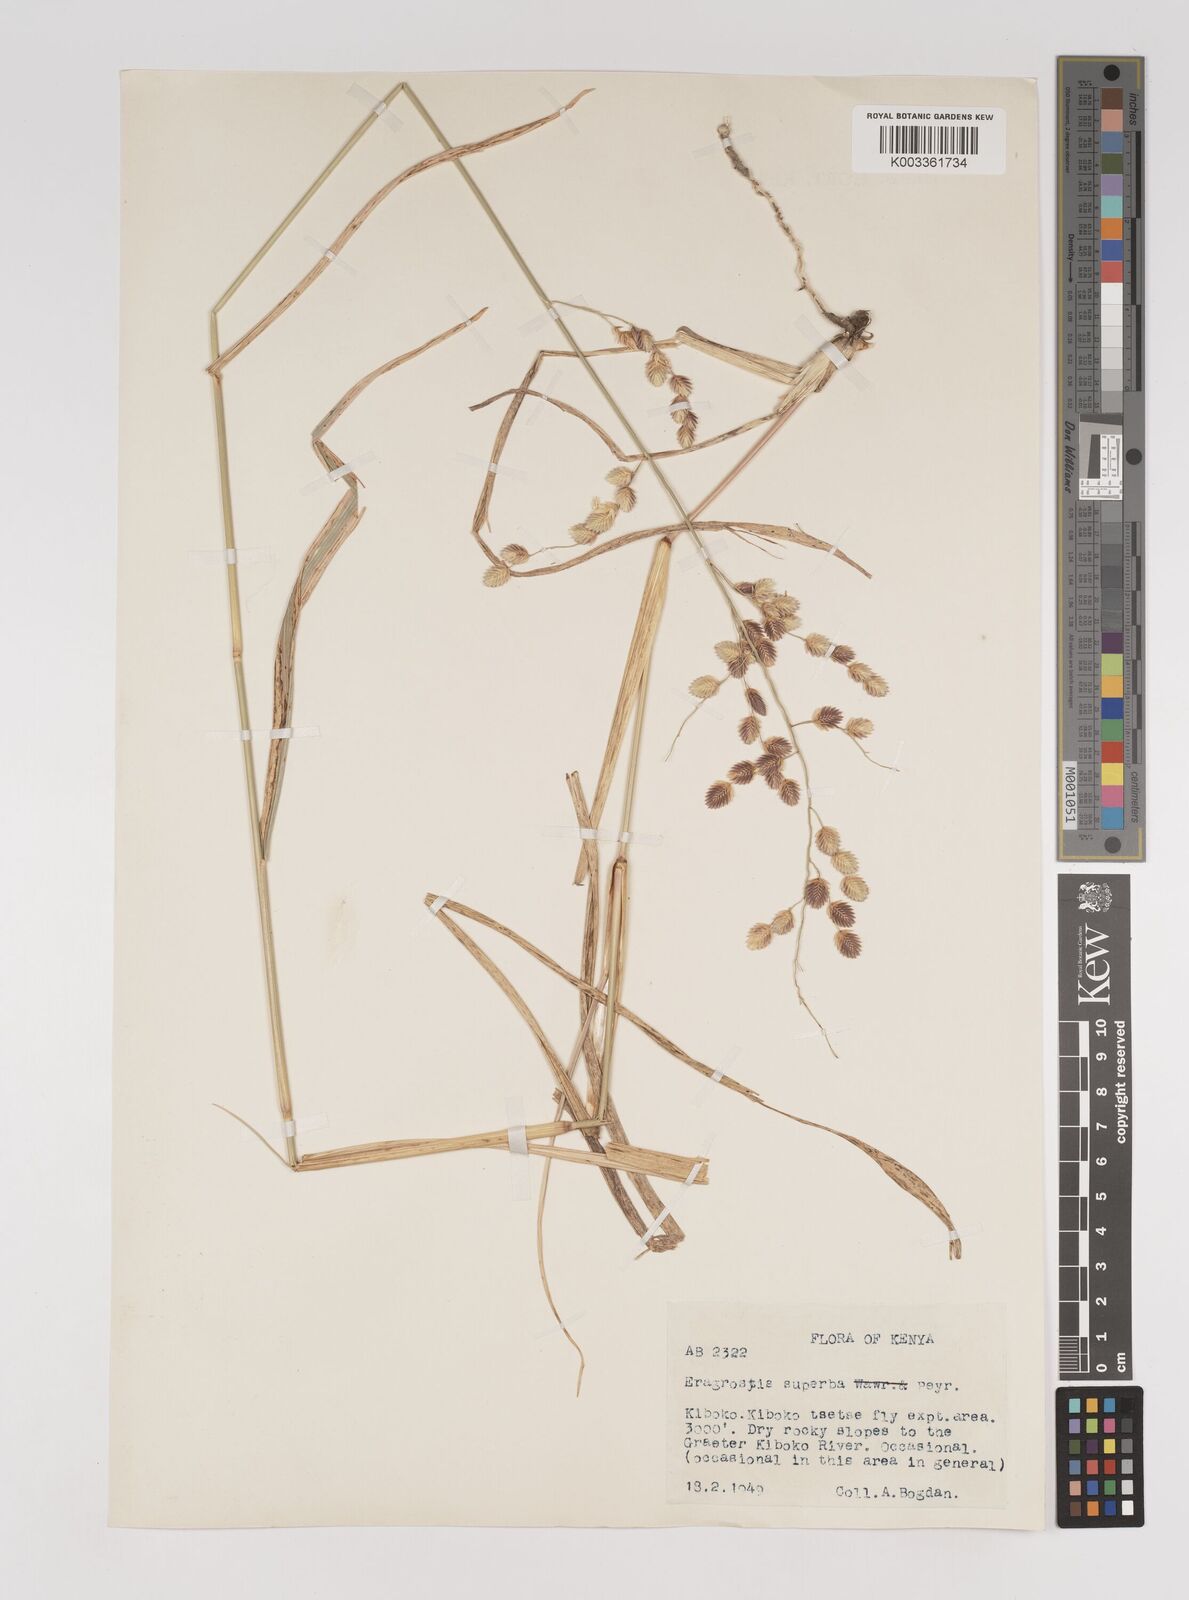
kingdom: Plantae
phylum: Tracheophyta
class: Liliopsida
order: Poales
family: Poaceae
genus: Eragrostis
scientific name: Eragrostis superba
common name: Wilman lovegrass
